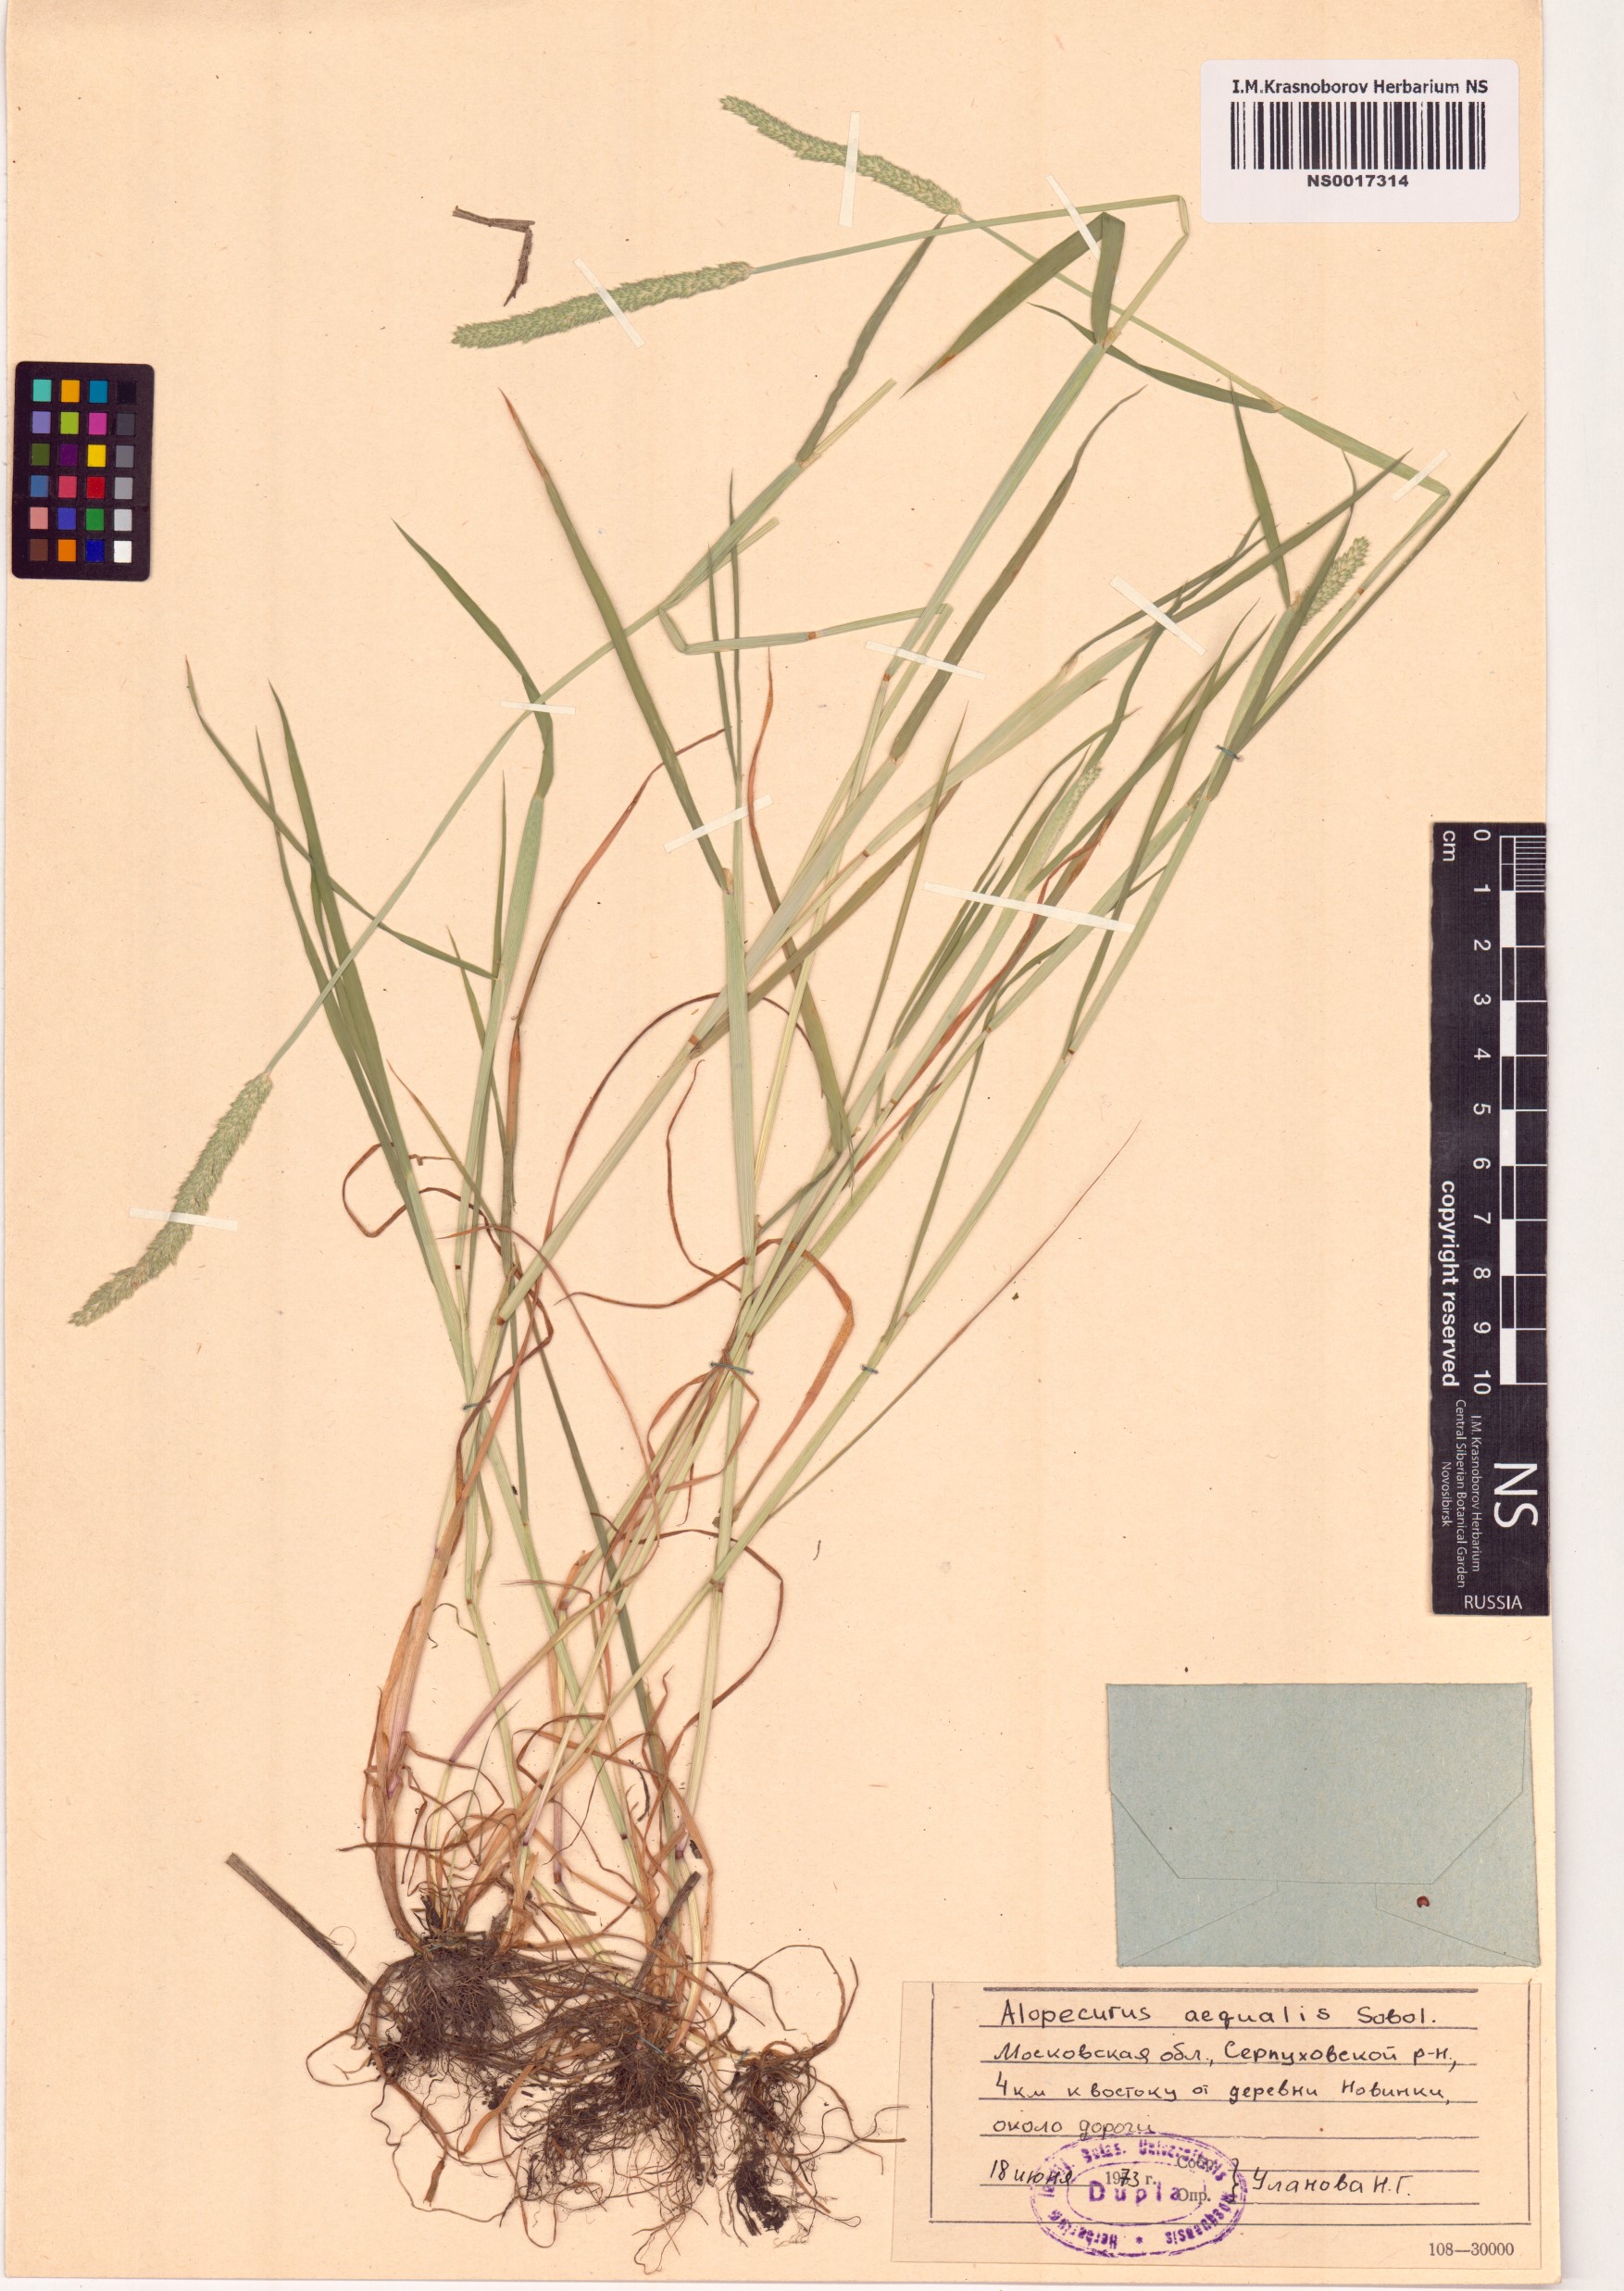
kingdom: Plantae
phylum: Tracheophyta
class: Liliopsida
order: Poales
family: Poaceae
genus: Alopecurus
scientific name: Alopecurus aequalis
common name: Orange foxtail
